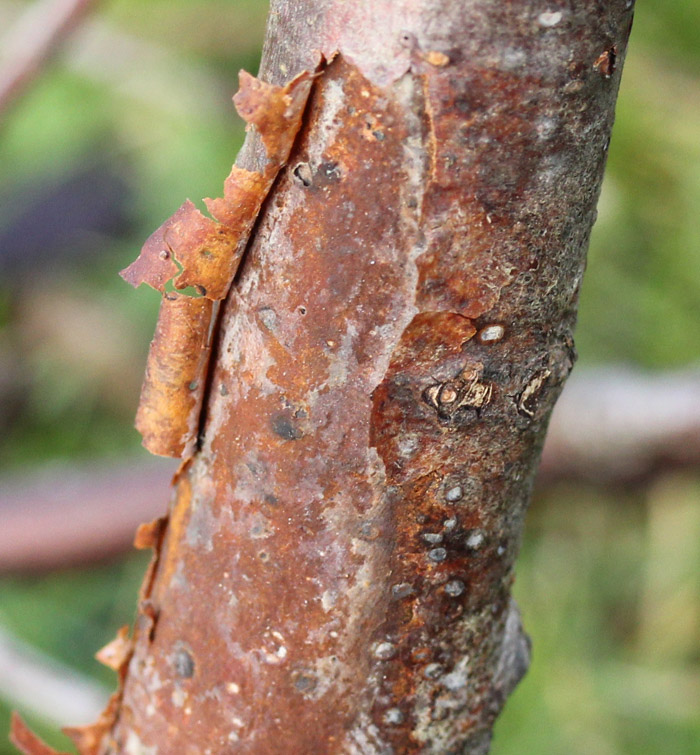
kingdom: Fungi
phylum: Basidiomycota
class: Agaricomycetes
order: Cantharellales
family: Hydnaceae
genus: Sistotrema
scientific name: Sistotrema brinkmannii
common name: bønnesporet kroneskorpe
